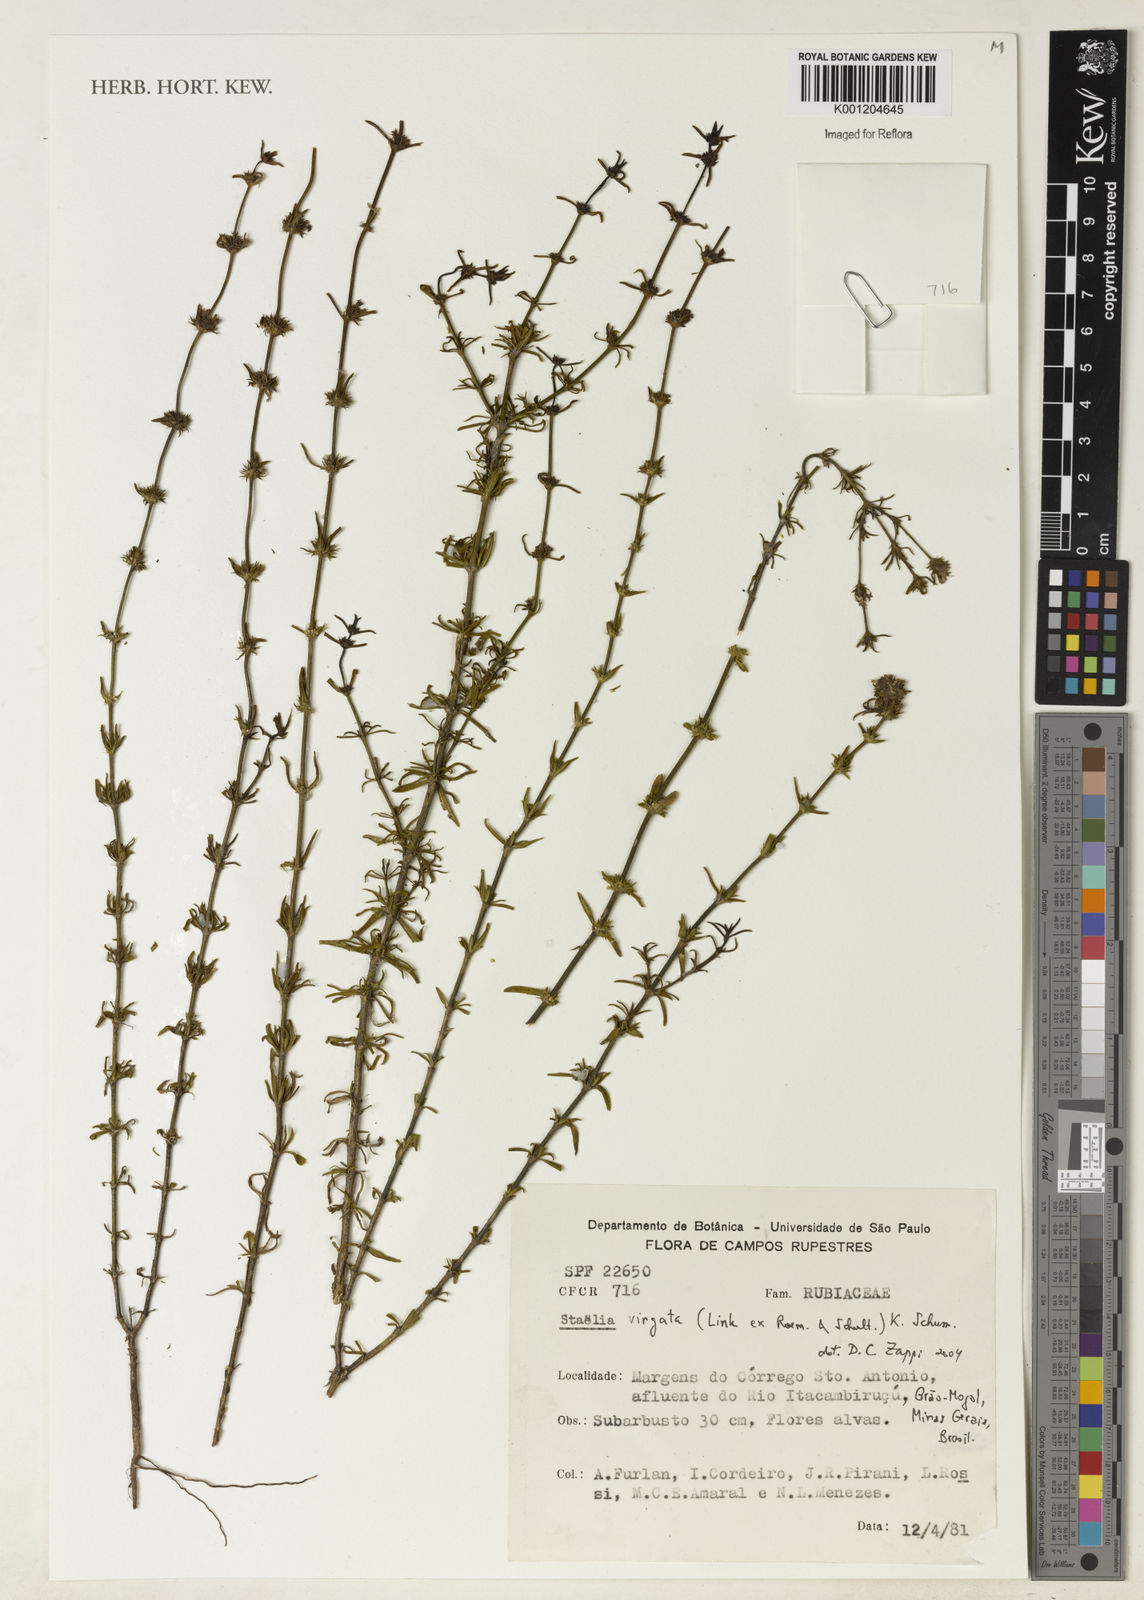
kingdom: Plantae
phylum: Tracheophyta
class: Magnoliopsida
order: Gentianales
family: Rubiaceae
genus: Staelia
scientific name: Staelia virgata
